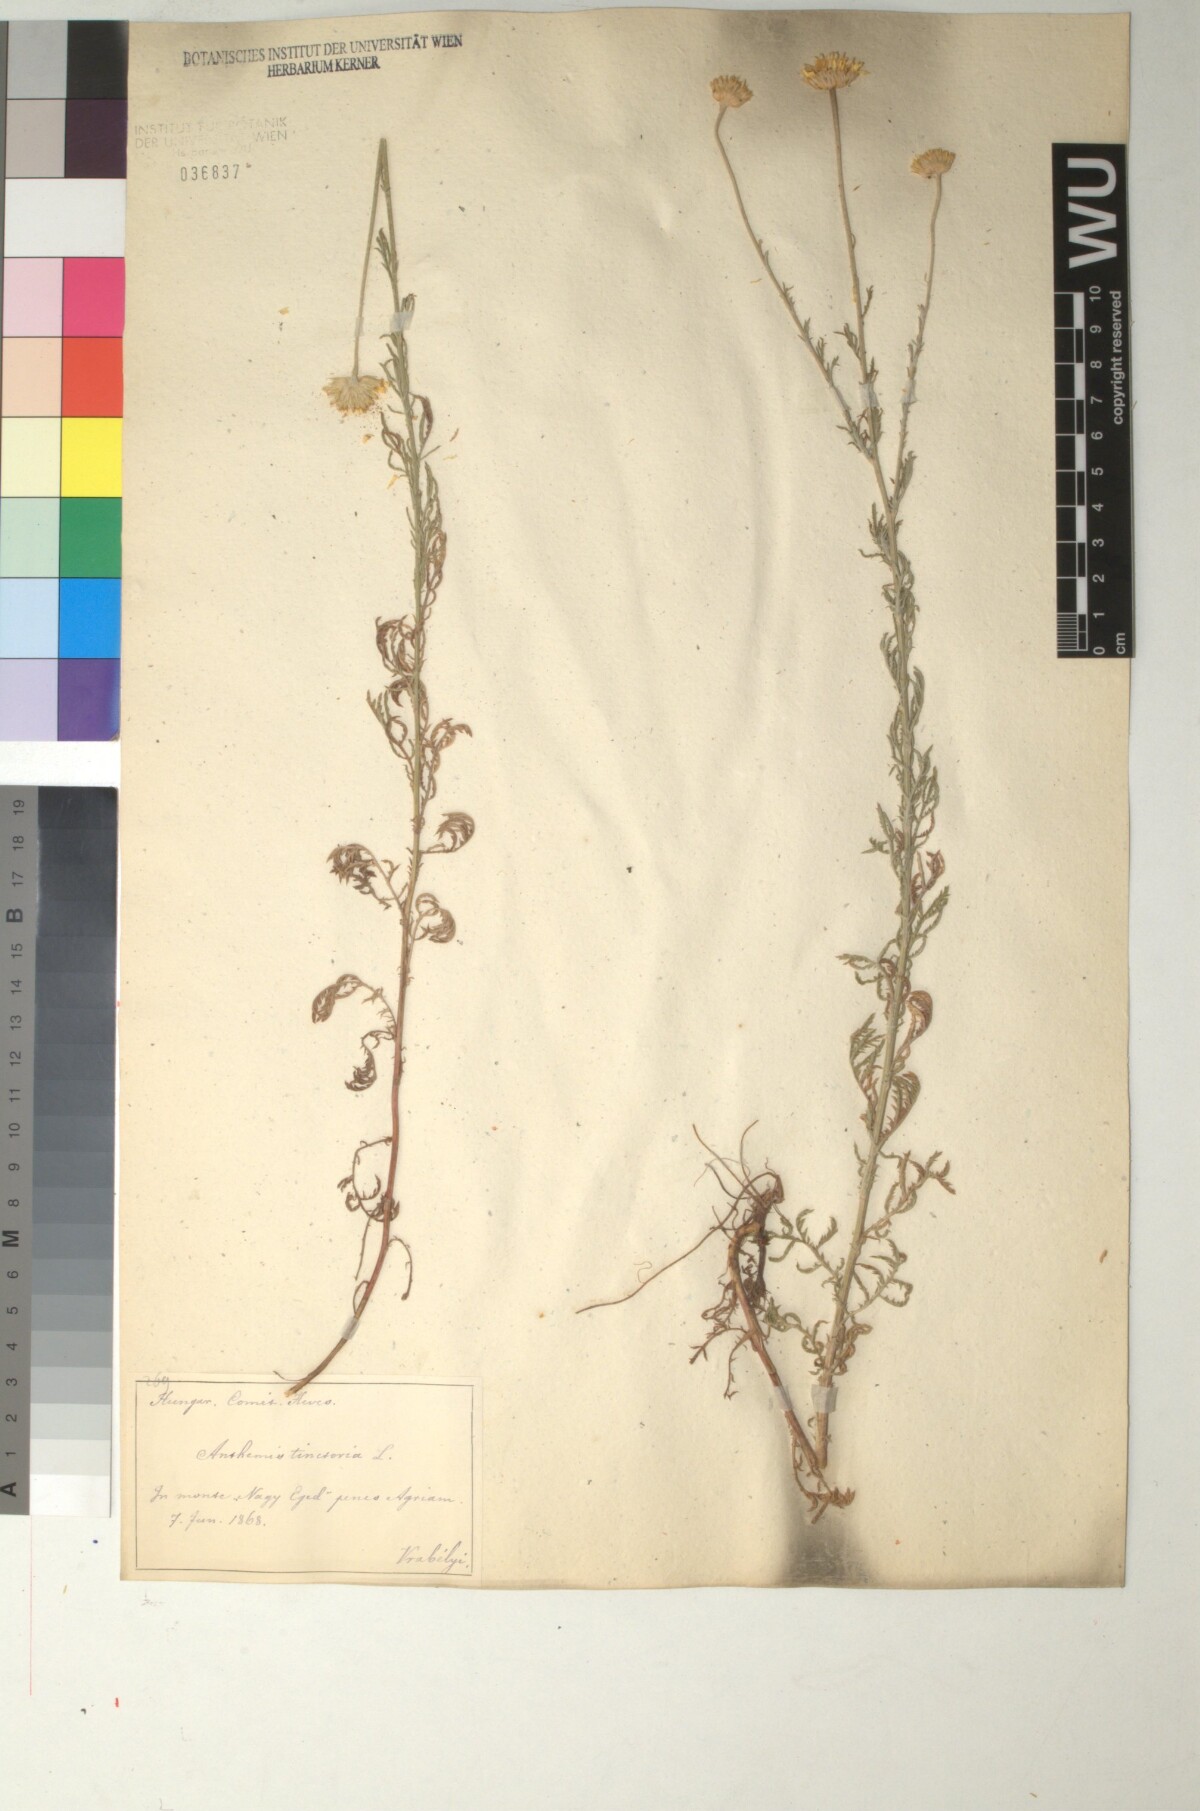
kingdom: Plantae
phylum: Tracheophyta
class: Magnoliopsida
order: Asterales
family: Asteraceae
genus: Cota
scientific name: Cota tinctoria
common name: Golden chamomile
